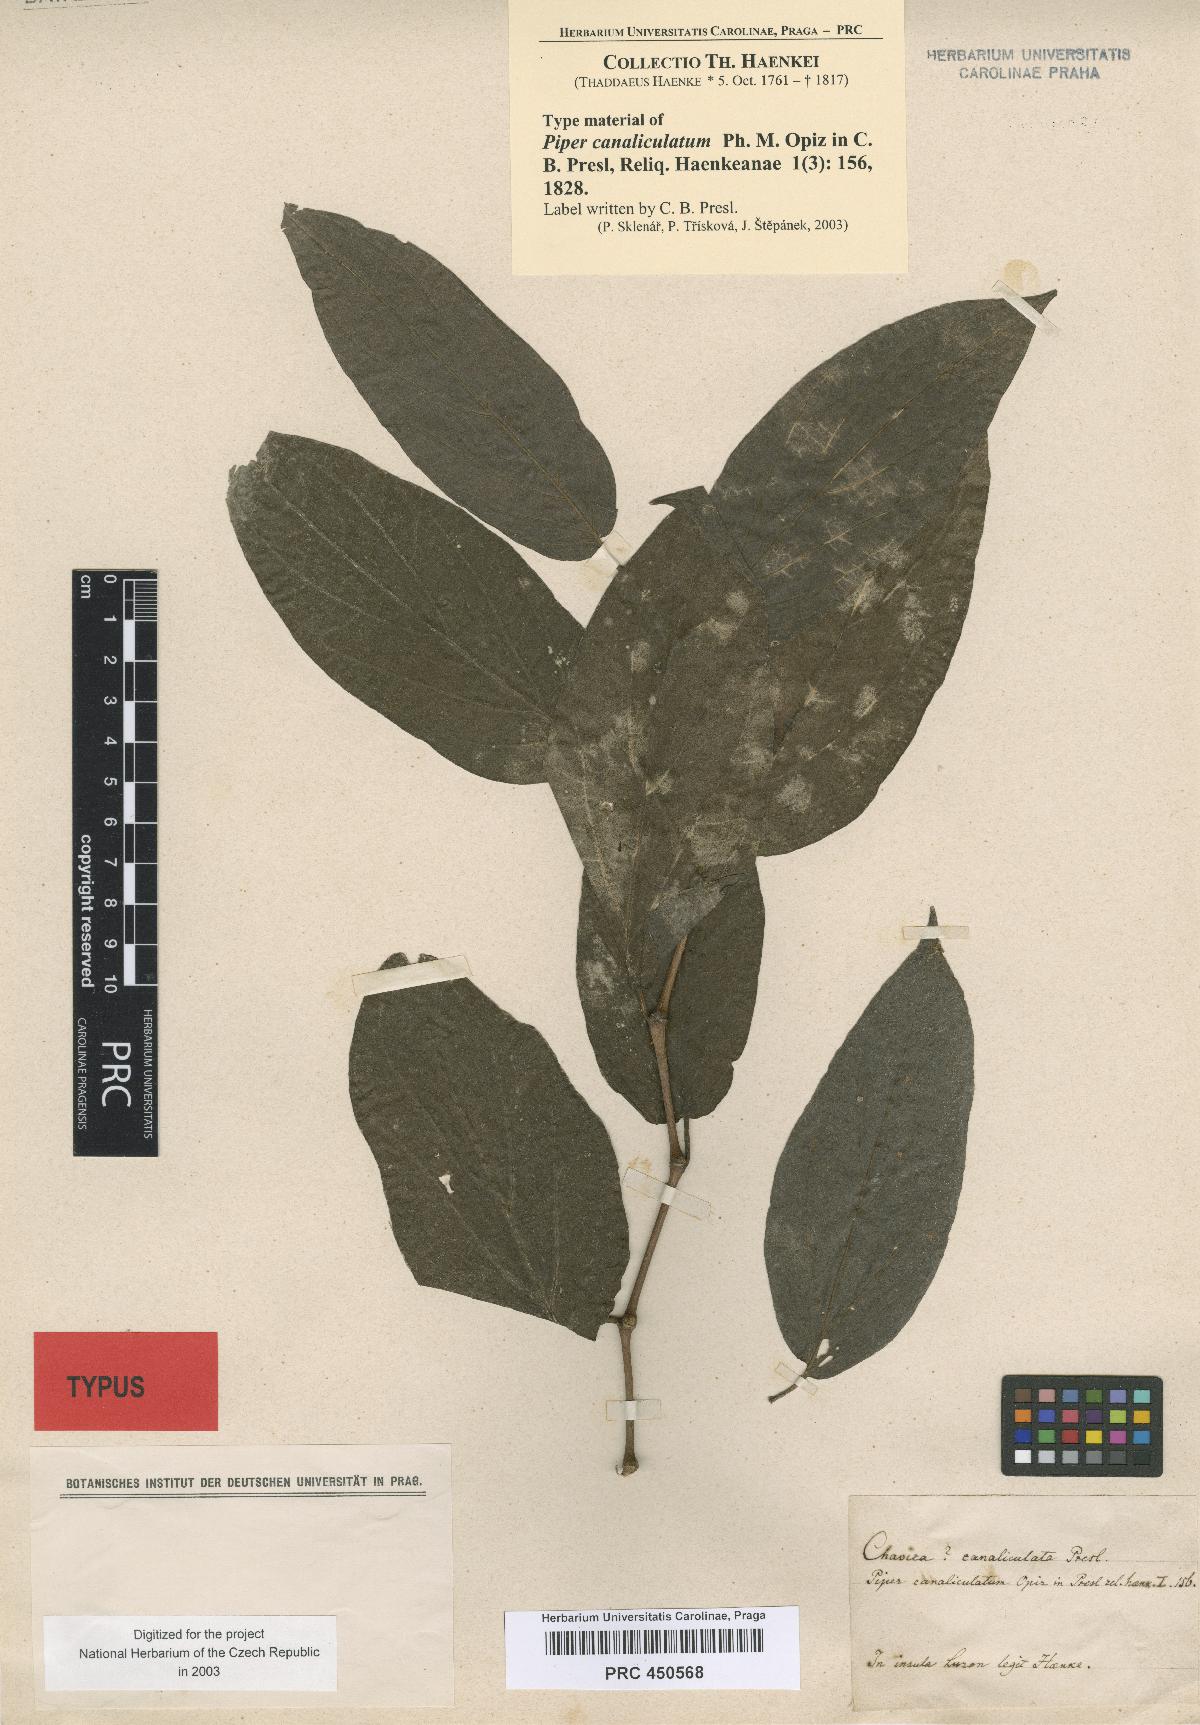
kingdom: Plantae
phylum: Tracheophyta
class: Magnoliopsida
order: Piperales
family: Piperaceae
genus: Piper
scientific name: Piper betle
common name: Betel pepper
